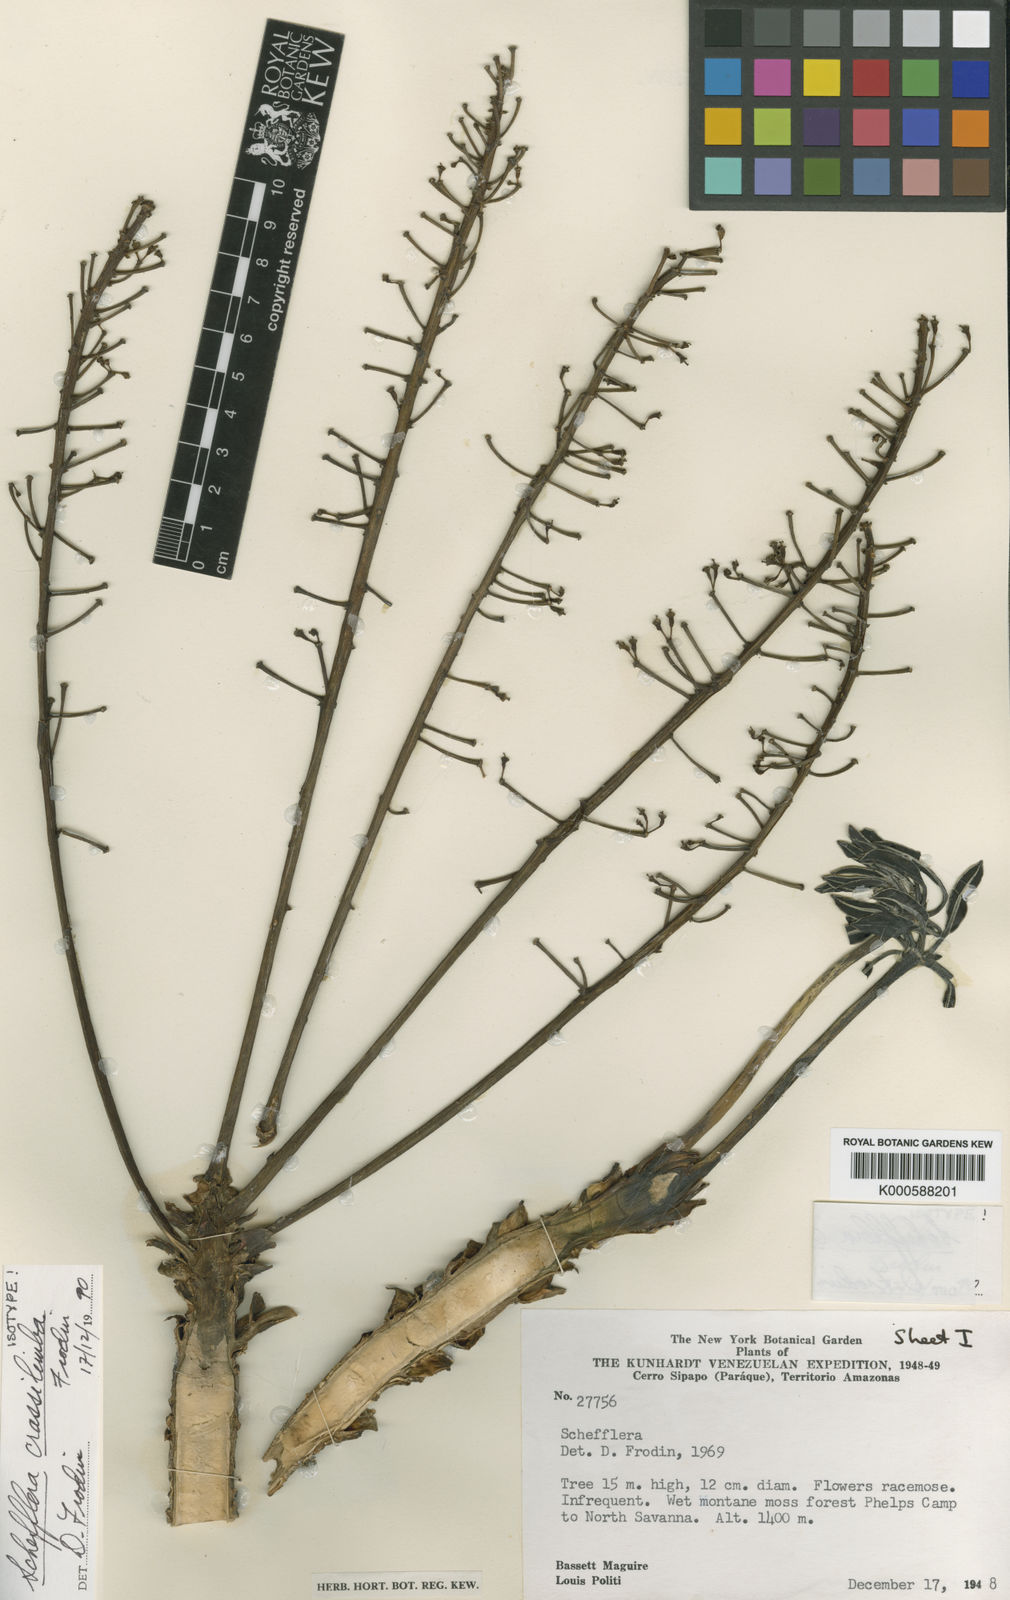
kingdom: Plantae
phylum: Tracheophyta
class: Magnoliopsida
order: Apiales
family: Araliaceae
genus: Sciodaphyllum
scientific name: Sciodaphyllum
